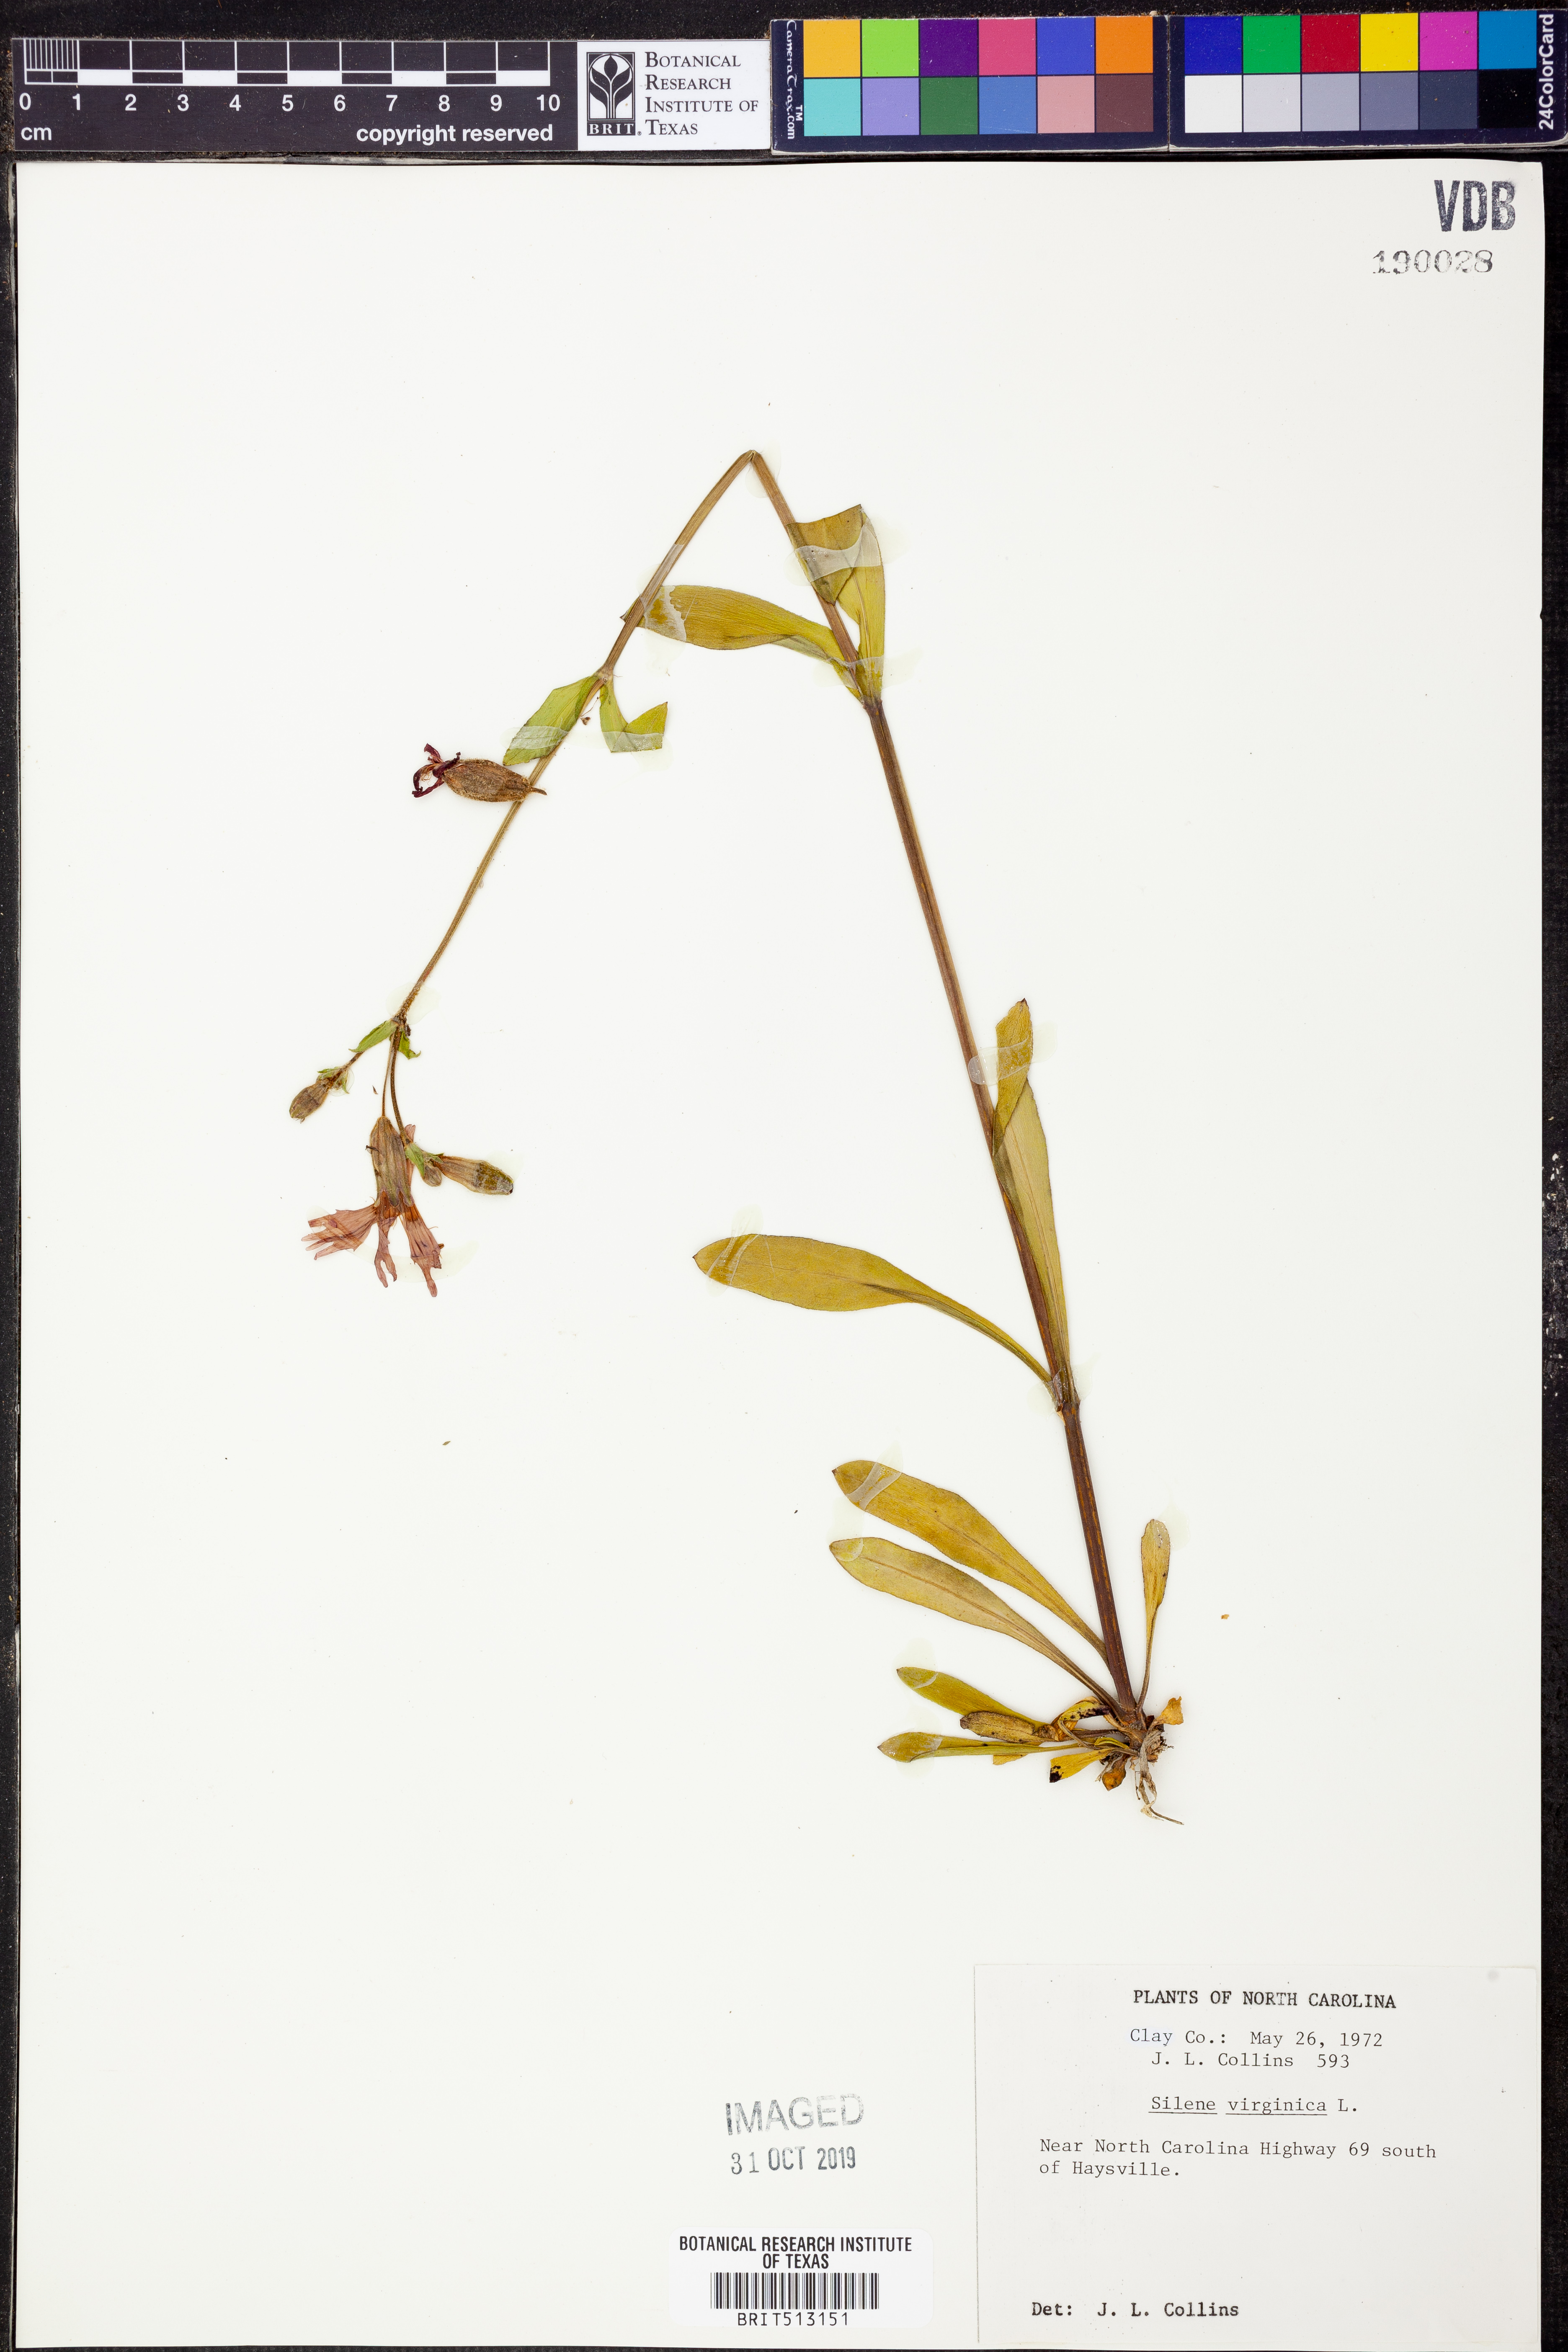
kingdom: Plantae
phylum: Tracheophyta
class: Magnoliopsida
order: Caryophyllales
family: Caryophyllaceae
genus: Silene
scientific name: Silene virginica
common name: Fire-pink
